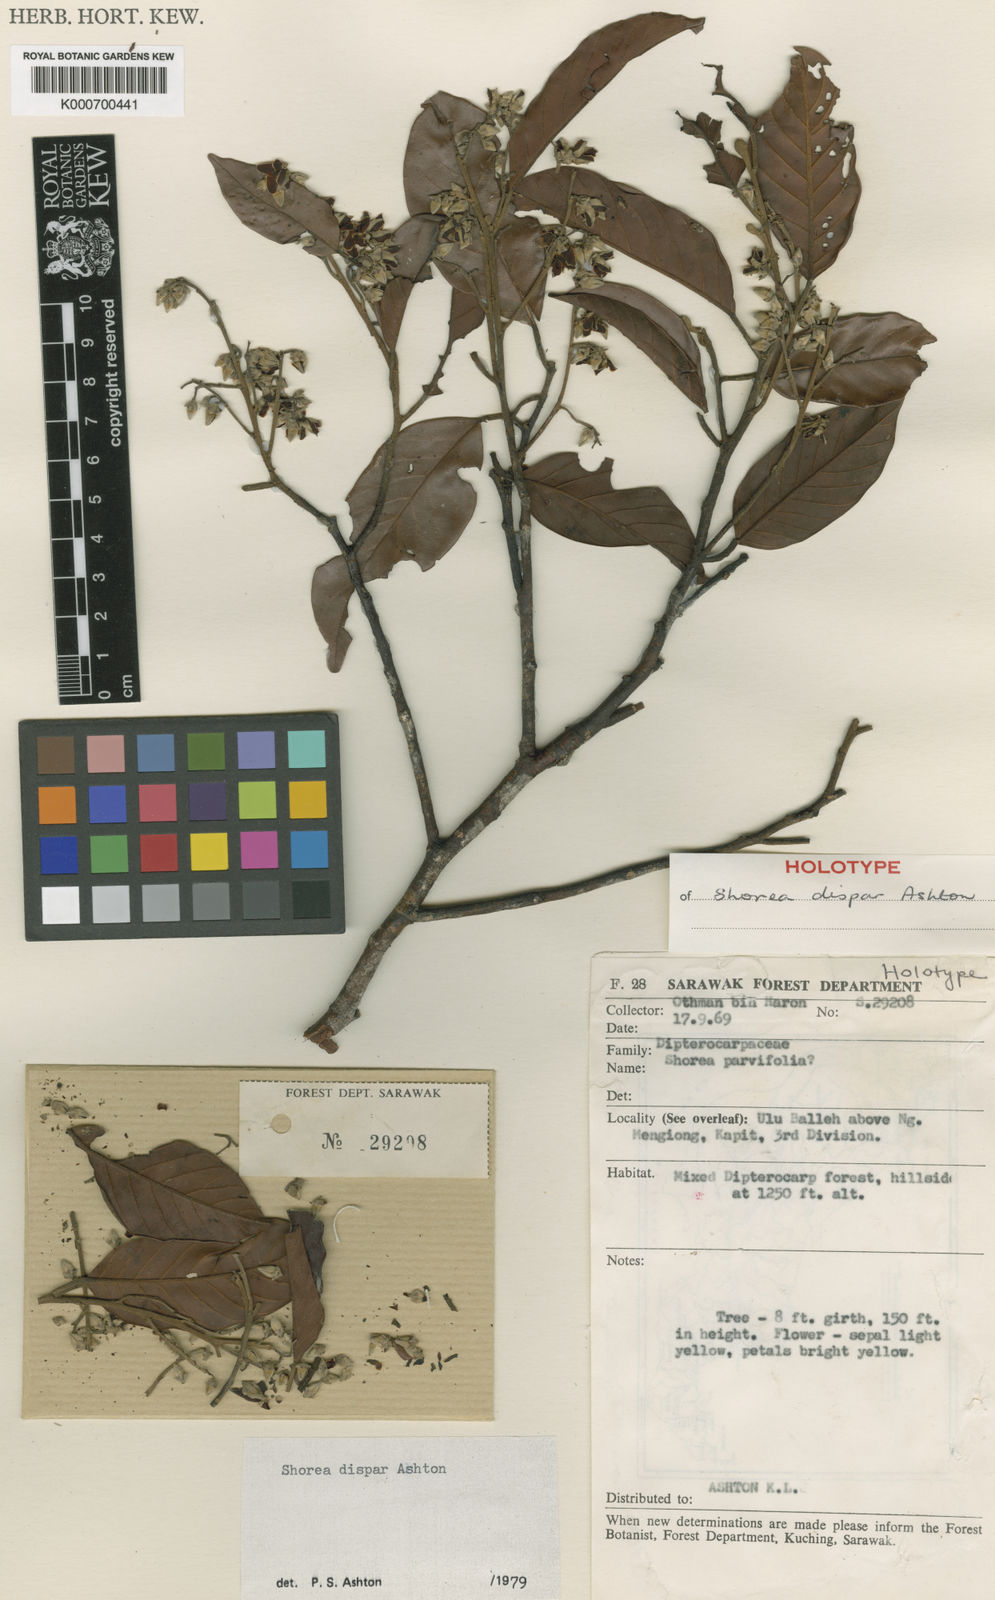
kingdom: Plantae
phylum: Tracheophyta
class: Magnoliopsida
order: Malvales
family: Dipterocarpaceae
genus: Shorea
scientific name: Shorea dispar
